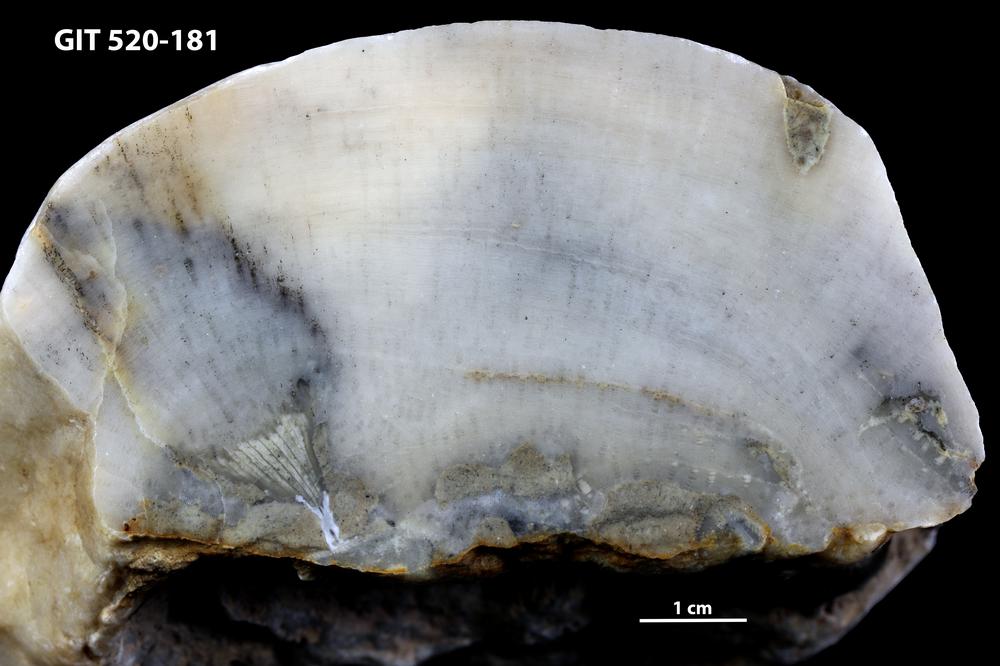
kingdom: Animalia
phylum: Cnidaria
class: Anthozoa
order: Heliolitina
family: Stelliporellidae
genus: Stelliporella
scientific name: Stelliporella
